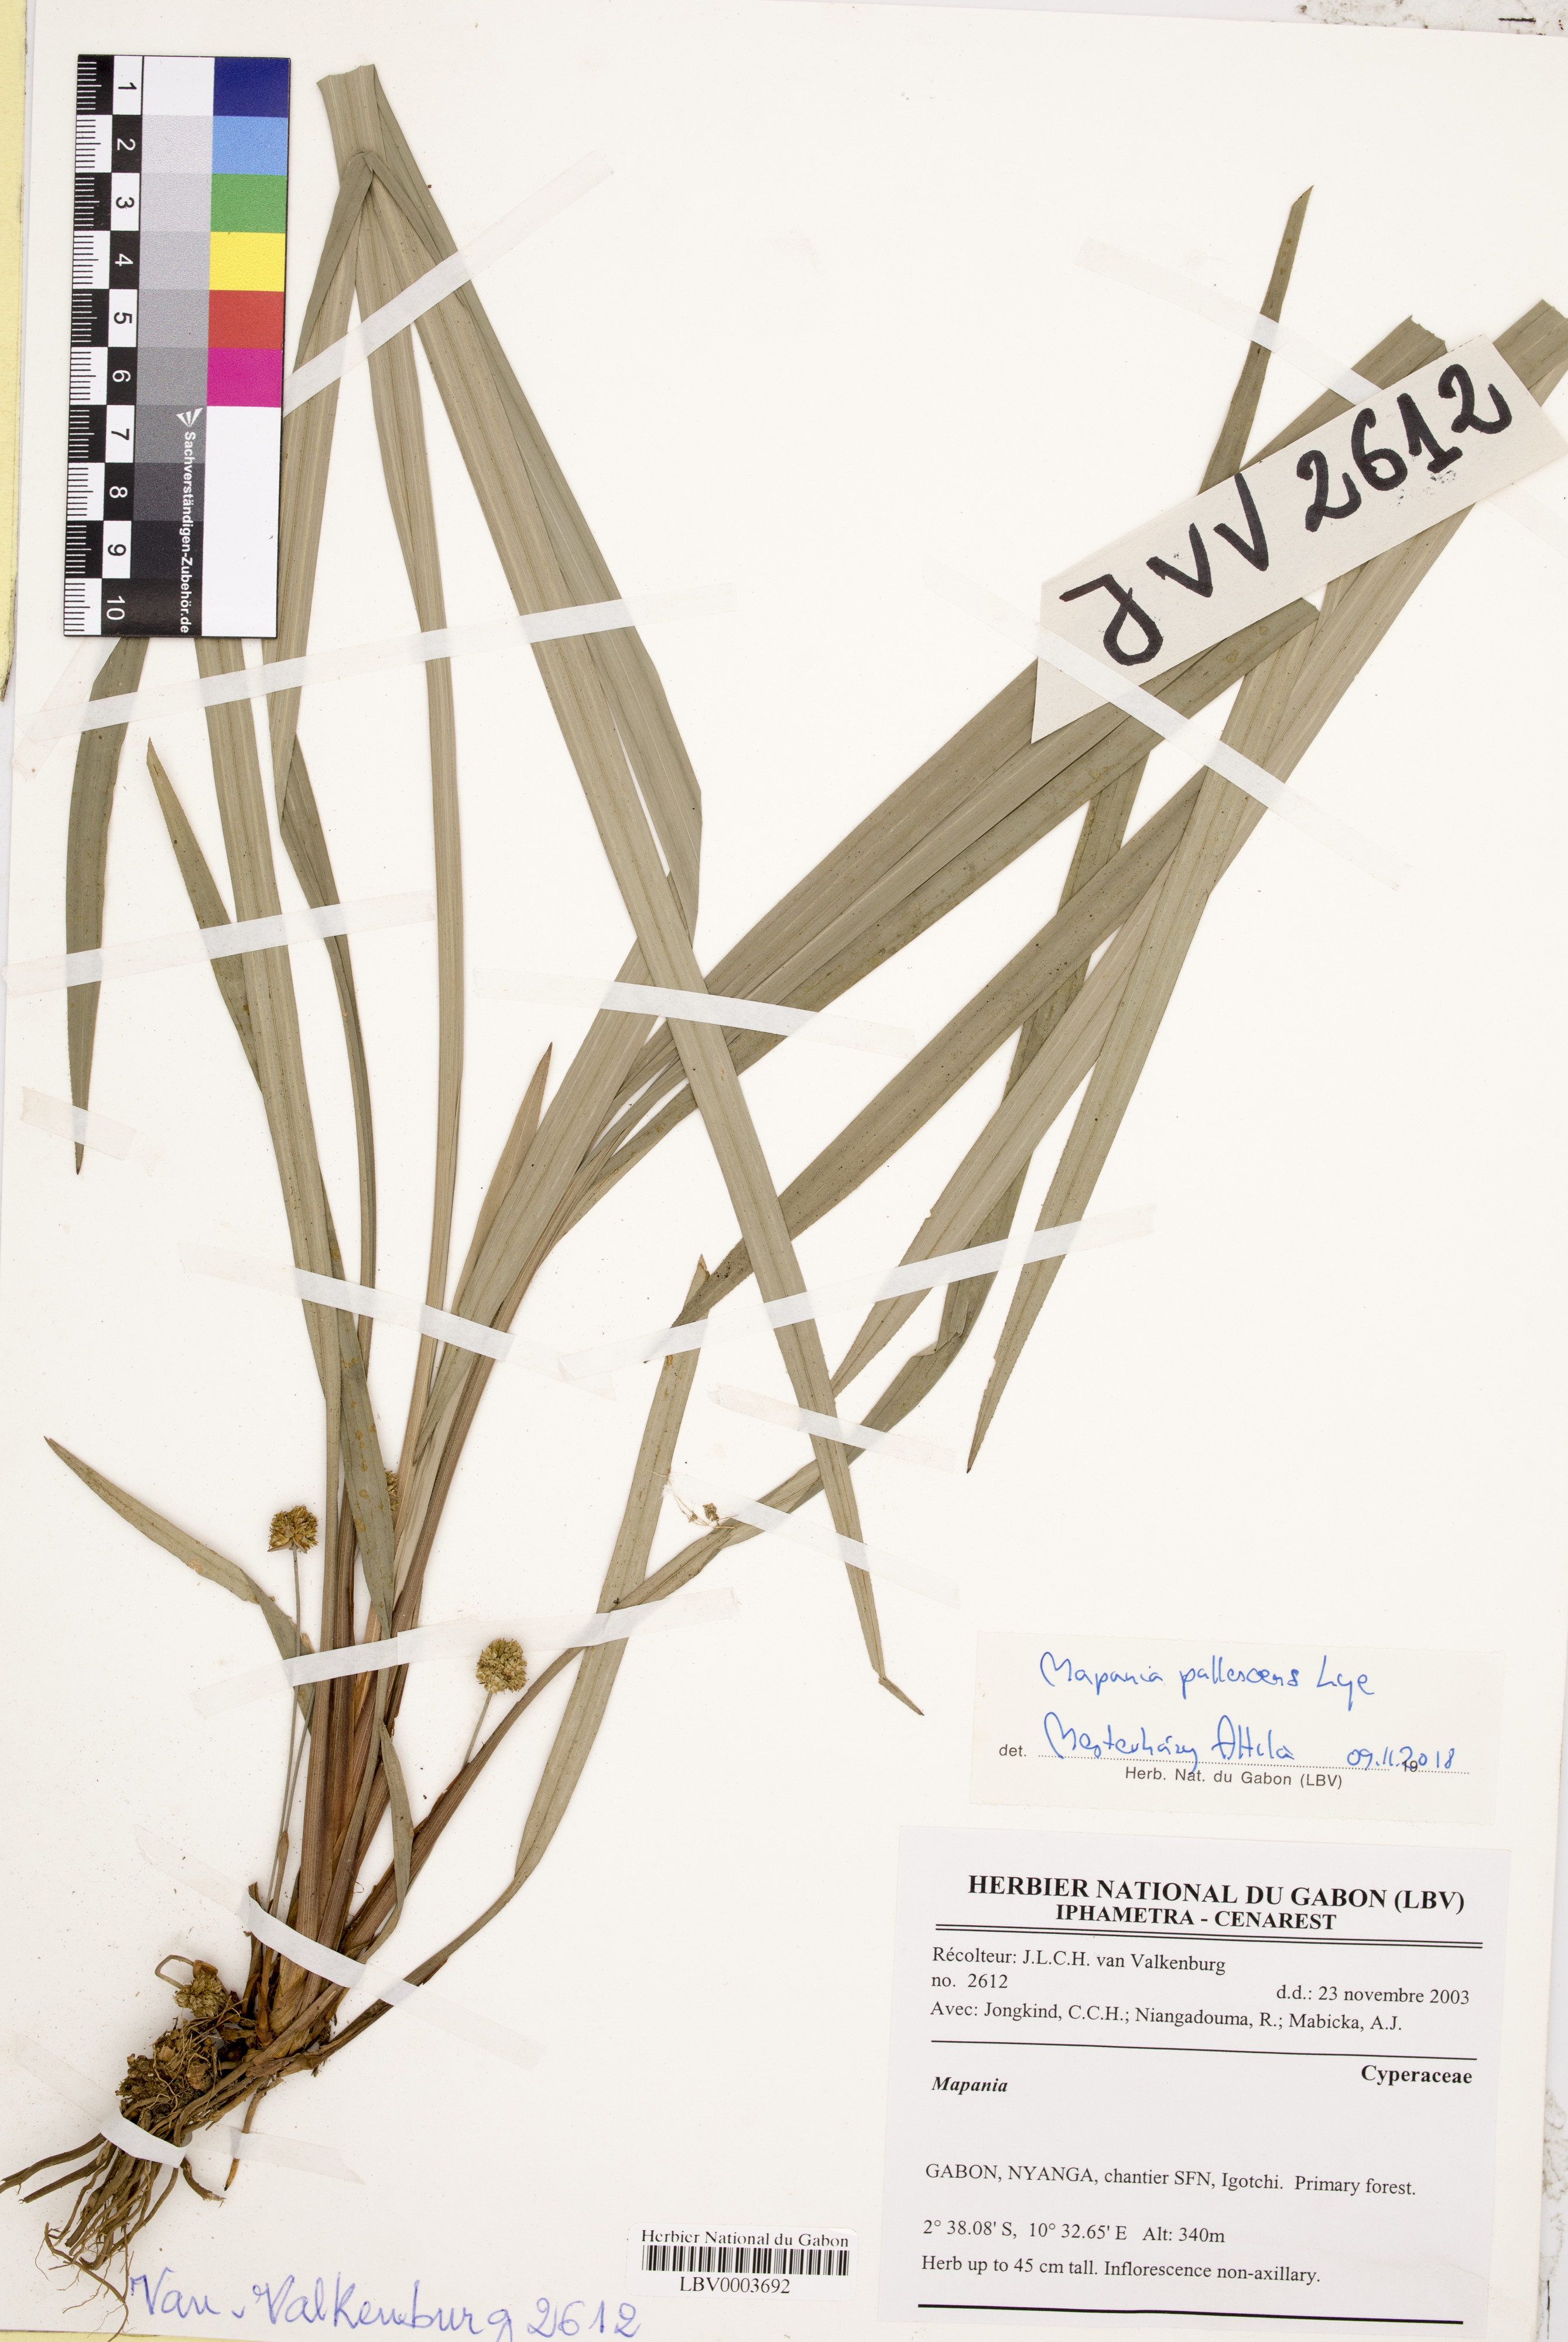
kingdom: Plantae
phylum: Tracheophyta
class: Liliopsida
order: Poales
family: Cyperaceae
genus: Mapania
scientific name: Mapania pallescens
